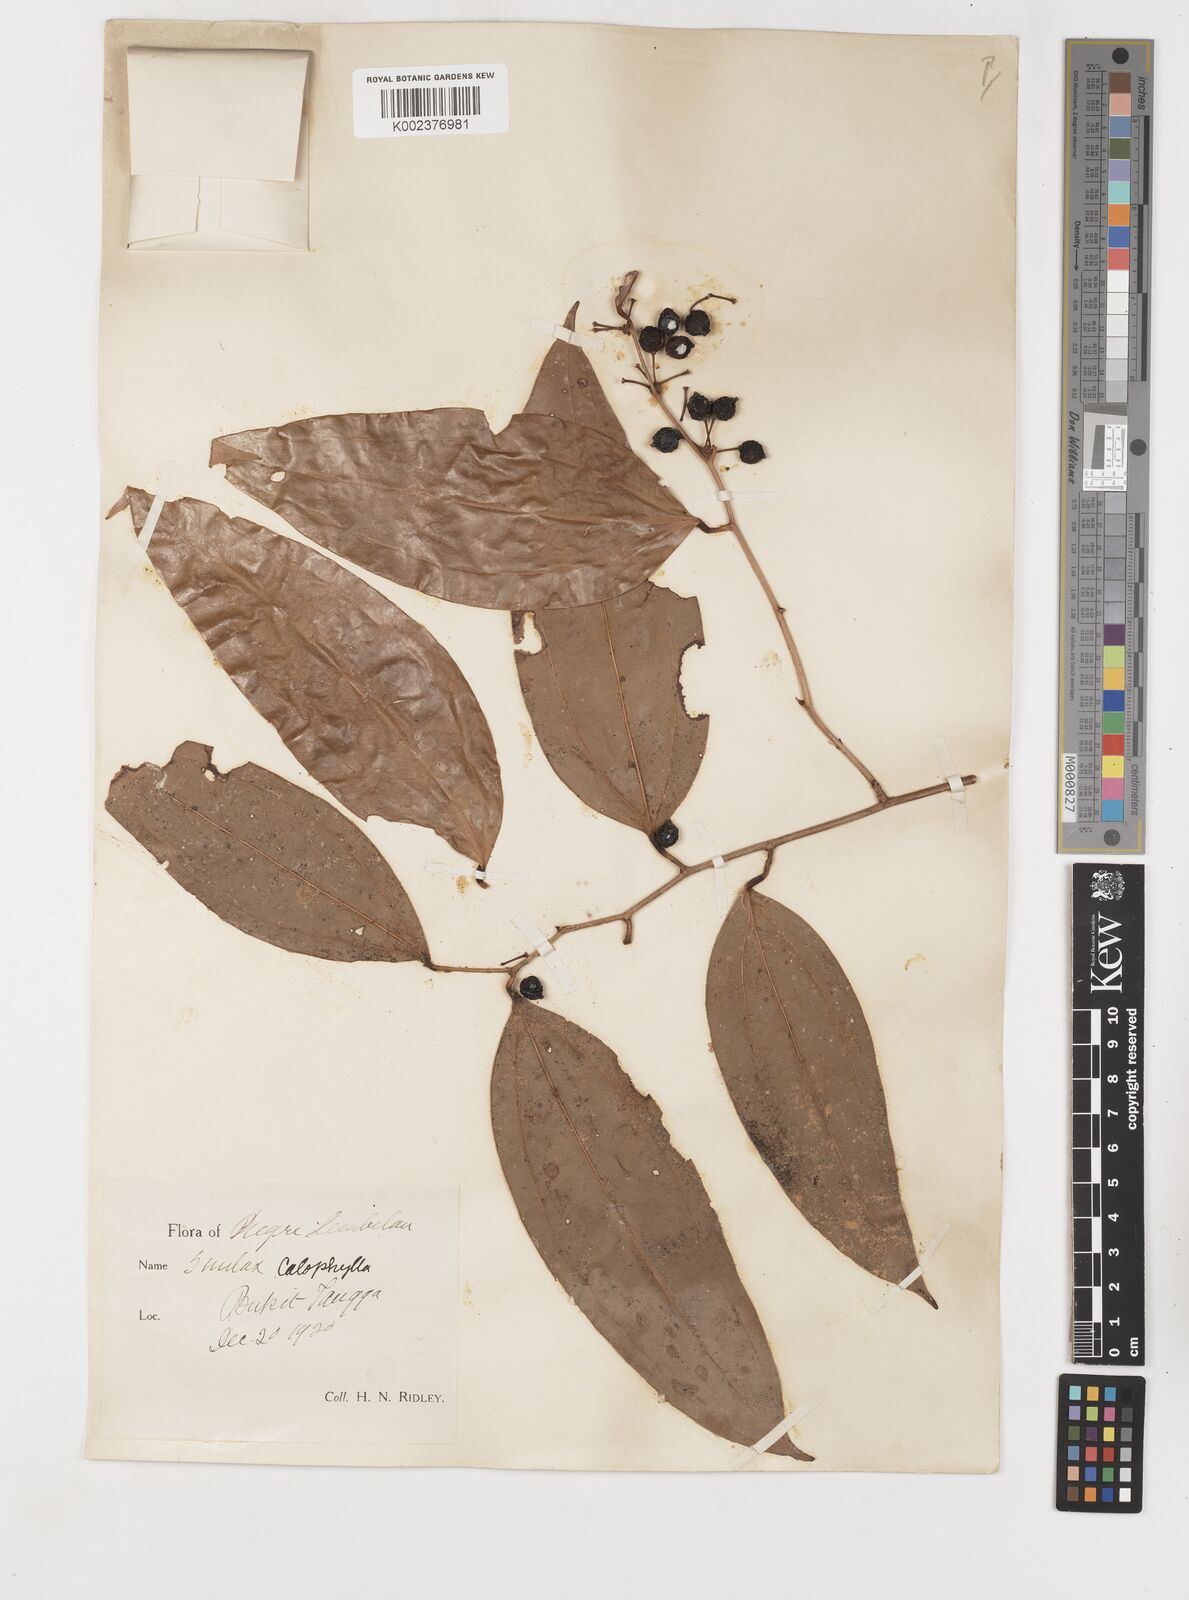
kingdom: Plantae
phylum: Tracheophyta
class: Liliopsida
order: Liliales
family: Smilacaceae
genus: Smilax
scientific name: Smilax calophylla
